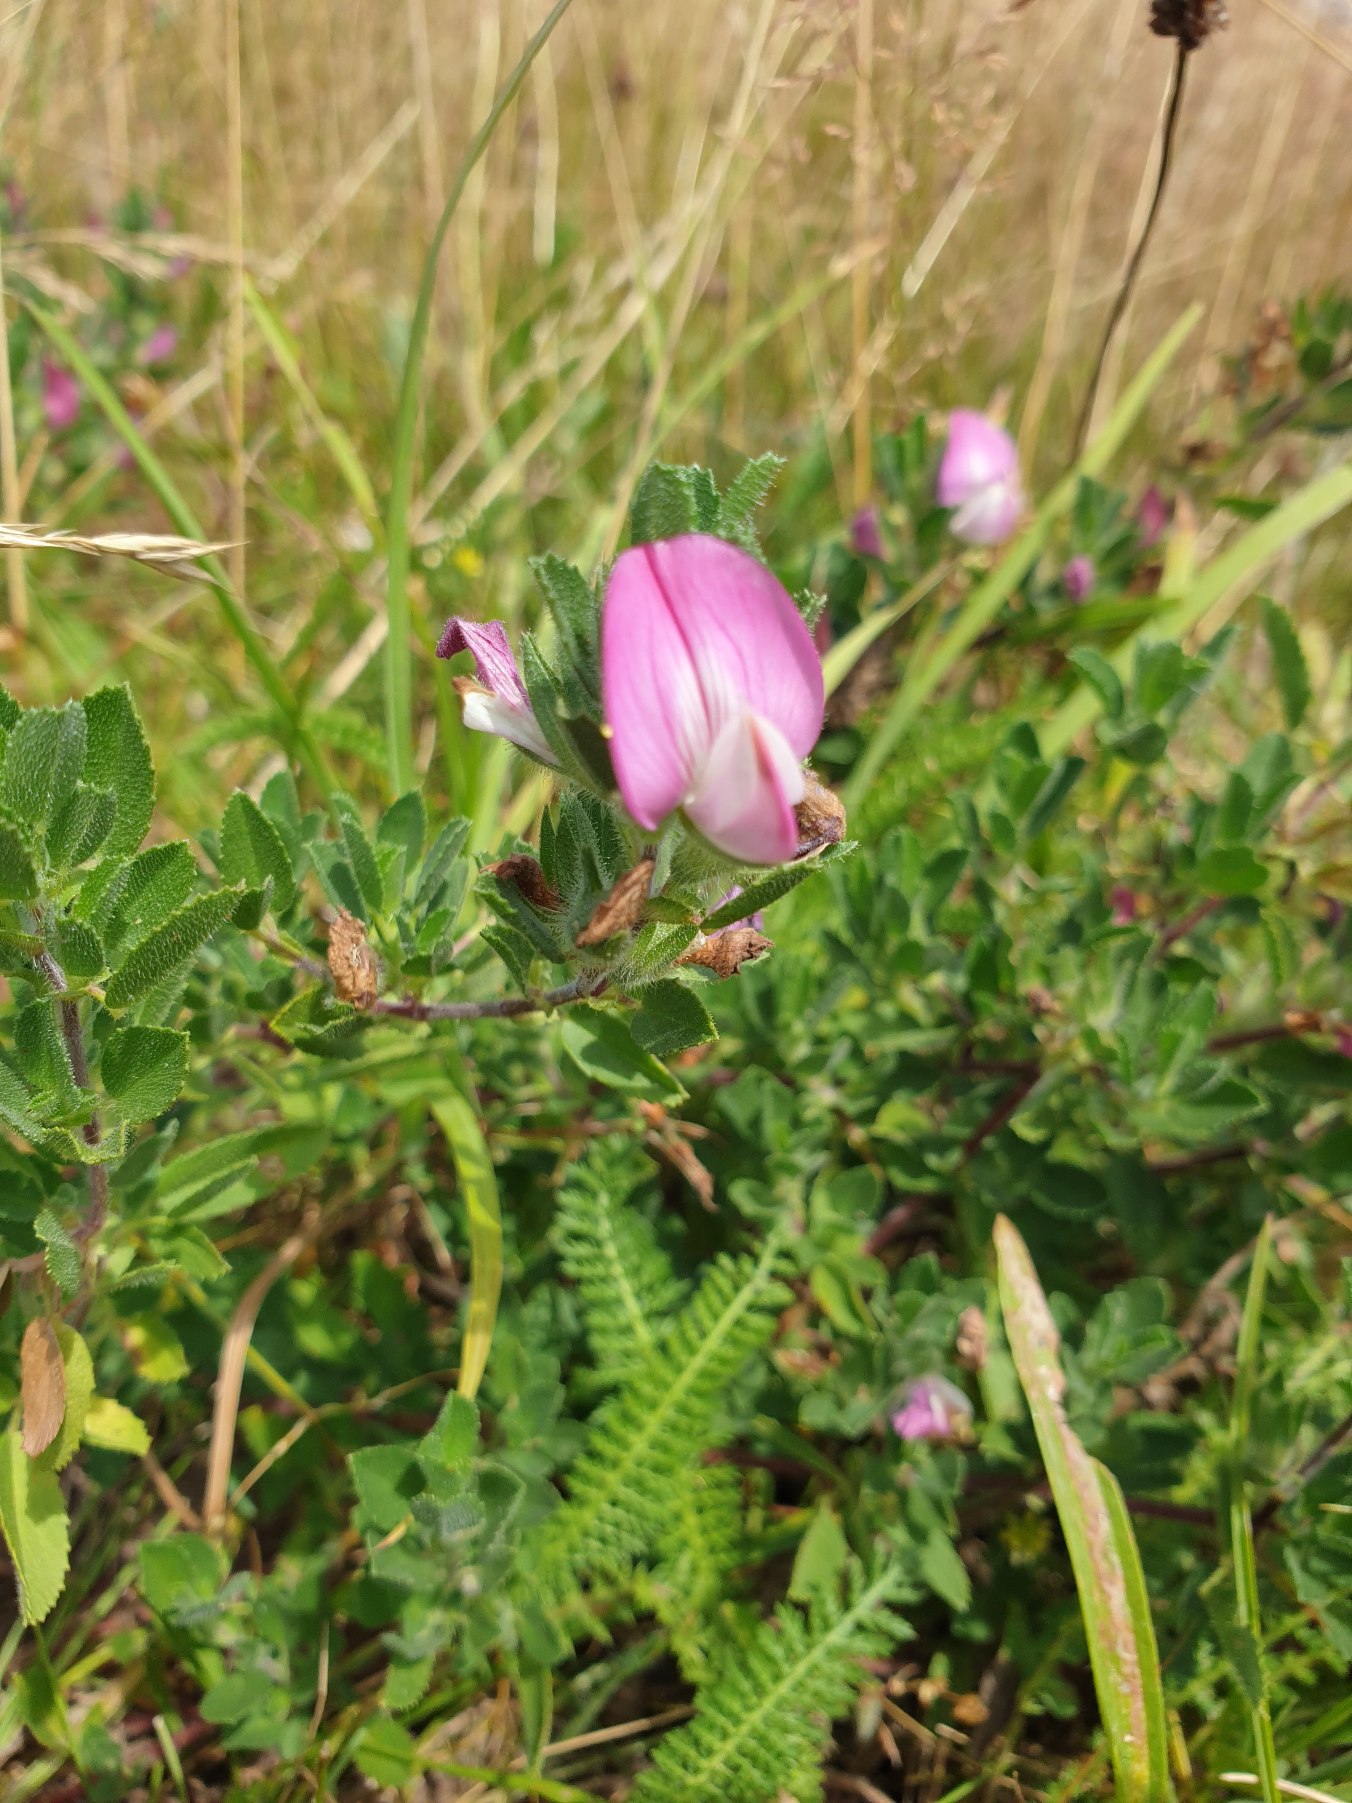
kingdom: Plantae
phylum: Tracheophyta
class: Magnoliopsida
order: Fabales
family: Fabaceae
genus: Ononis
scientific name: Ononis spinosa
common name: Mark-krageklo
